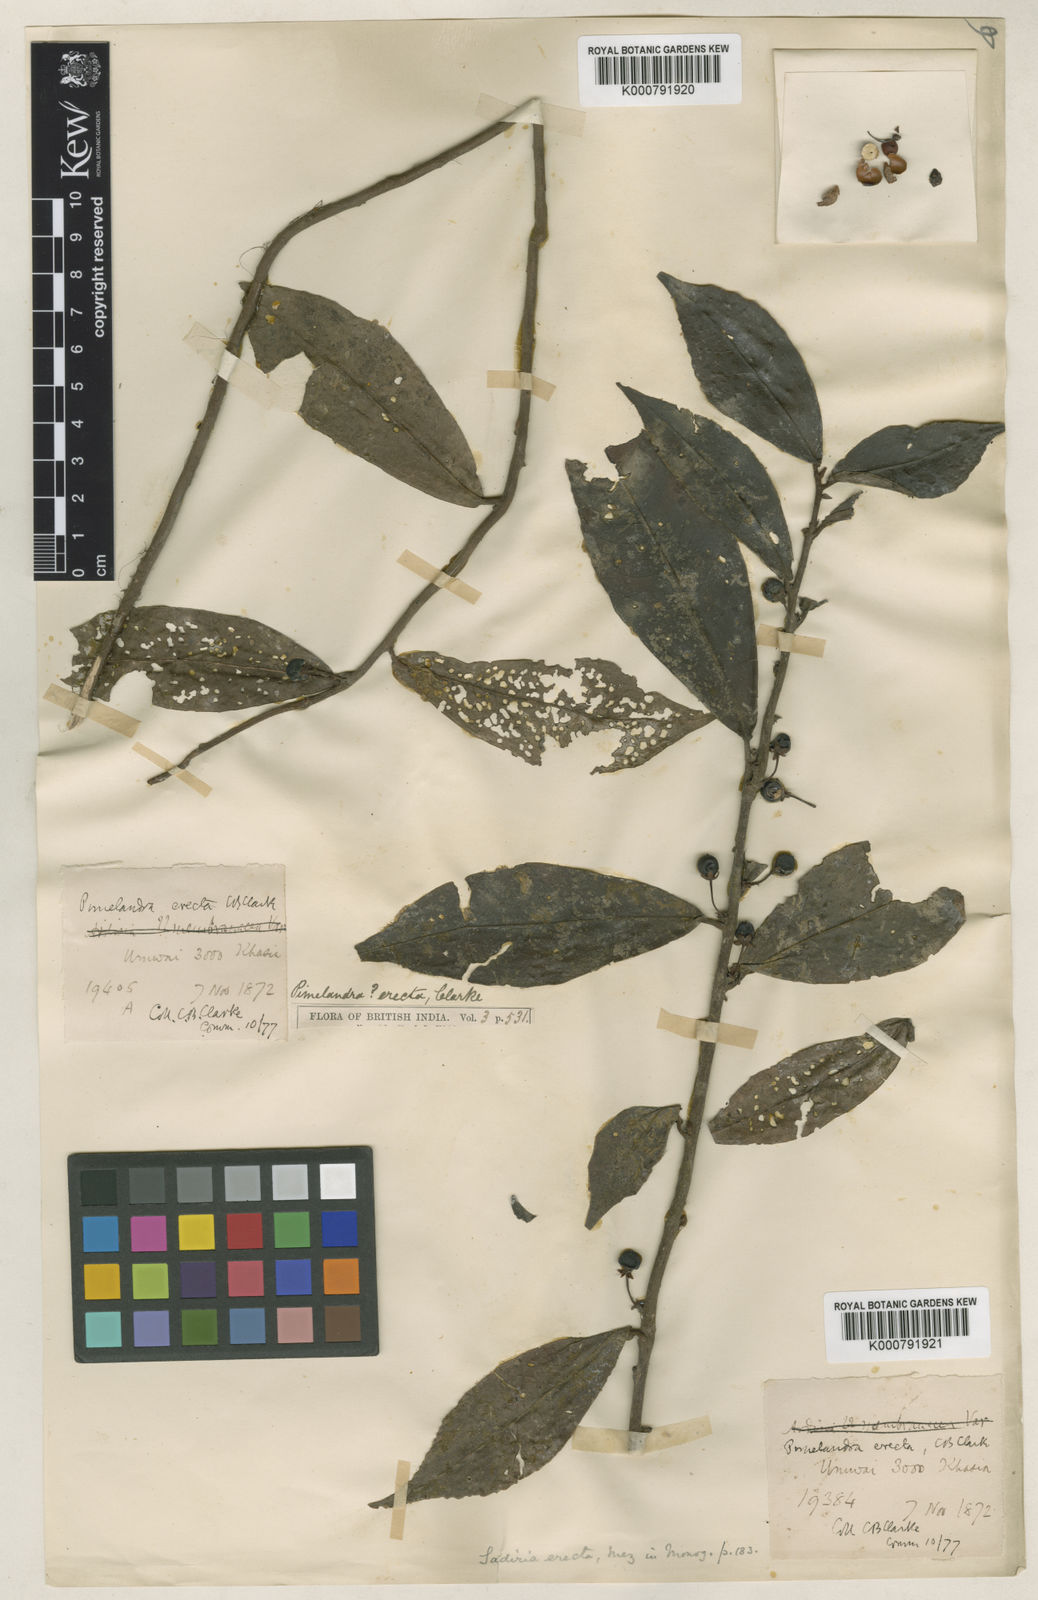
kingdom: Plantae
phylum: Tracheophyta
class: Magnoliopsida
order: Ericales
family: Primulaceae
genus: Sadiria
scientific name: Sadiria erecta
